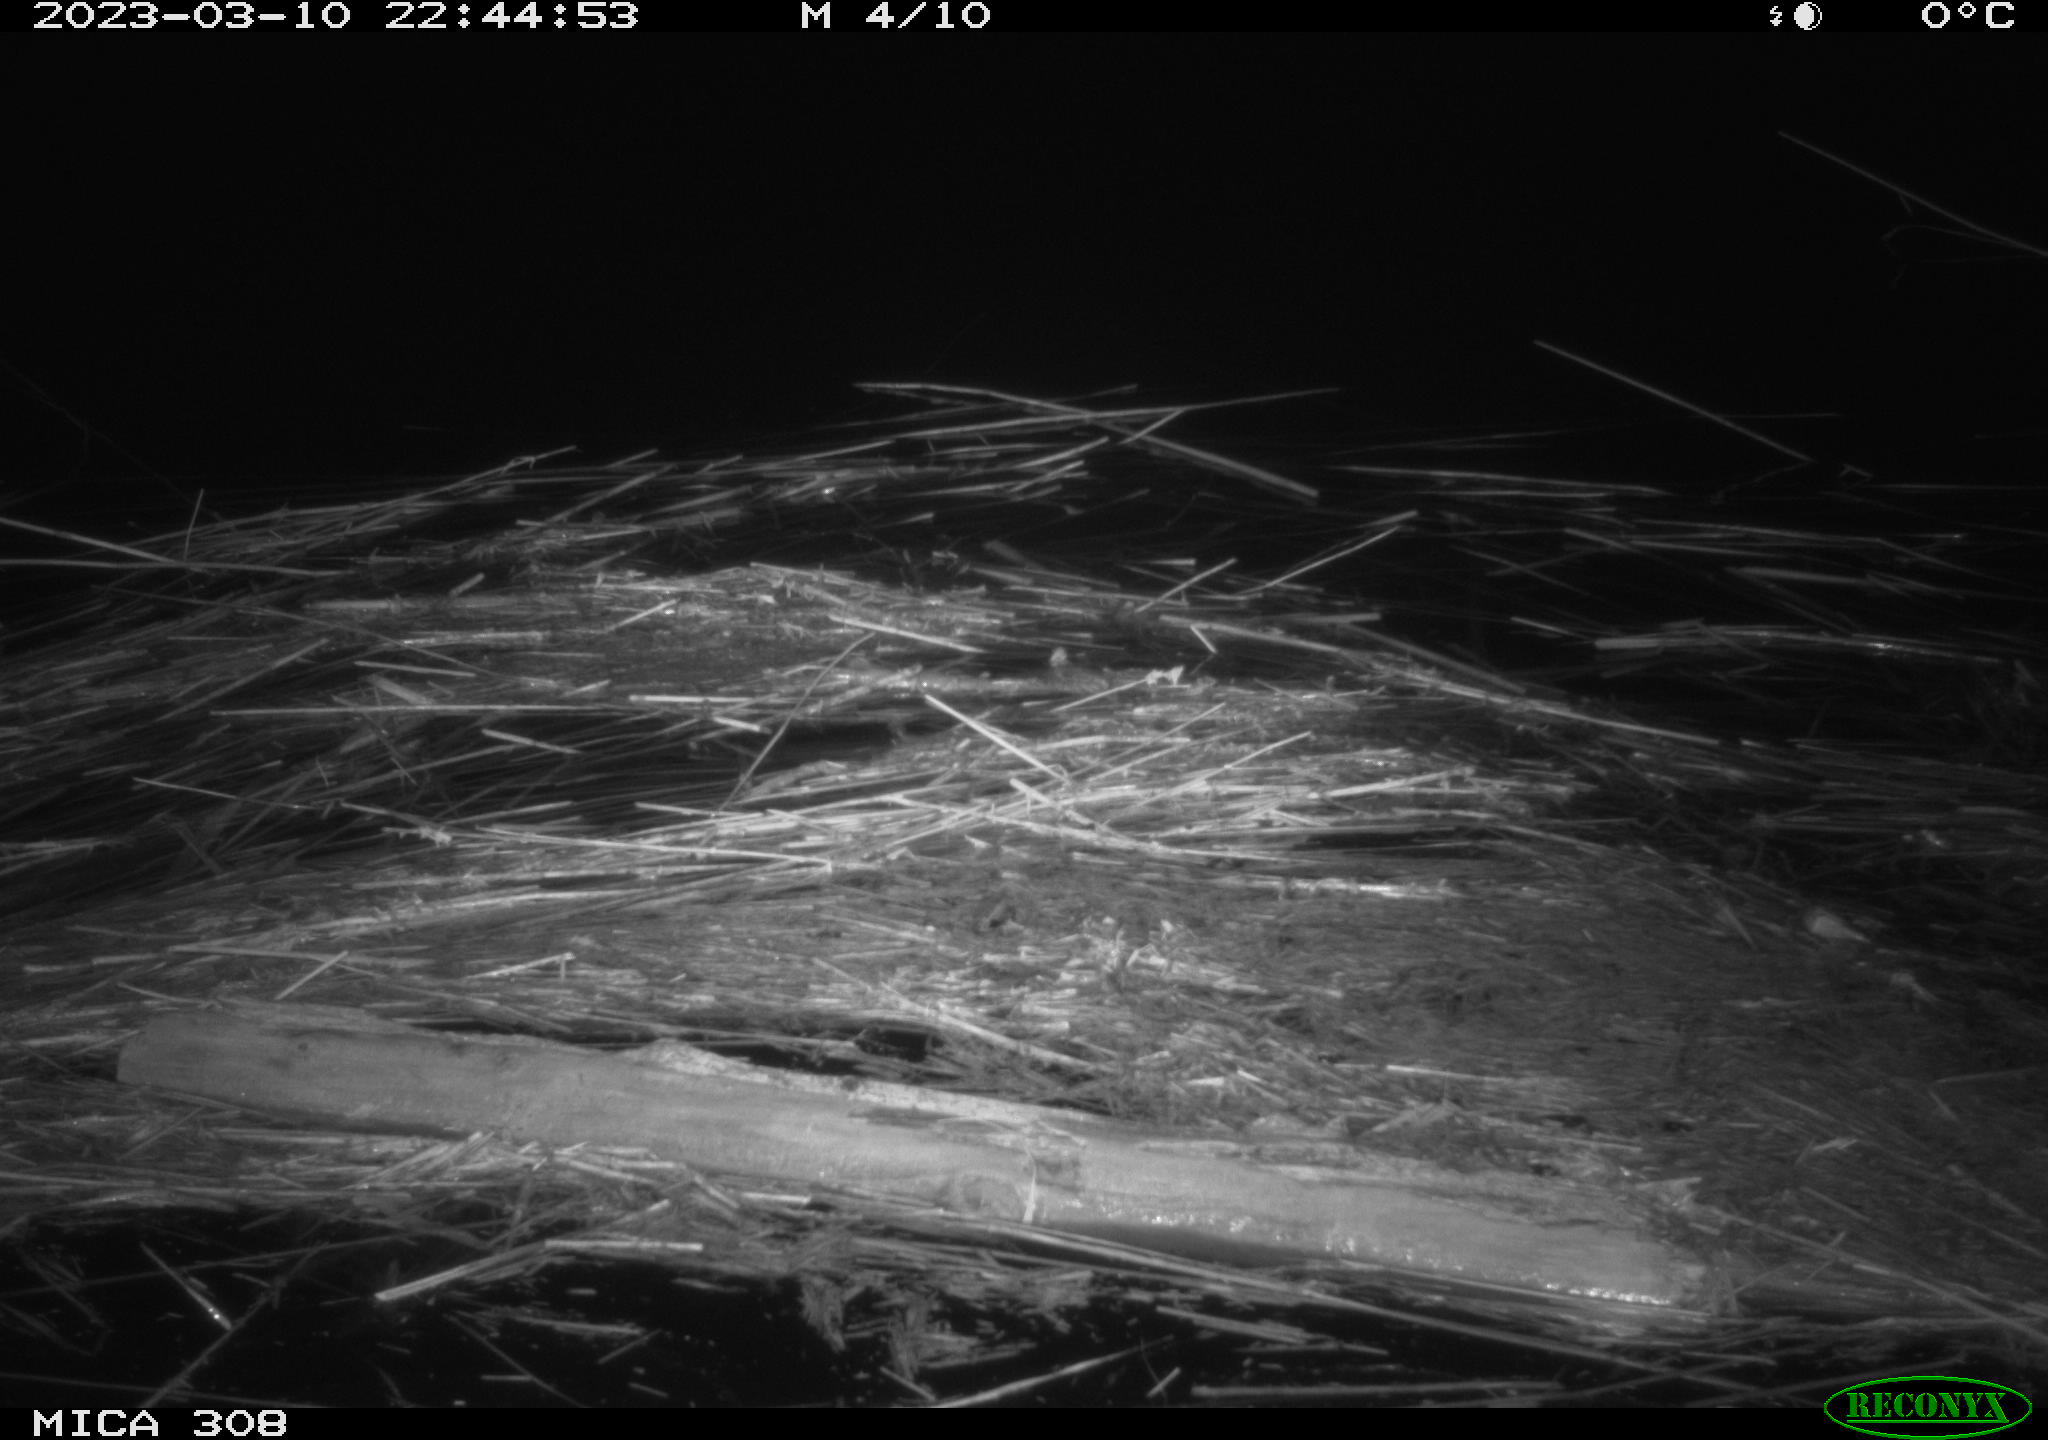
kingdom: Animalia
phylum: Chordata
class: Mammalia
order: Rodentia
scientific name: Rodentia
